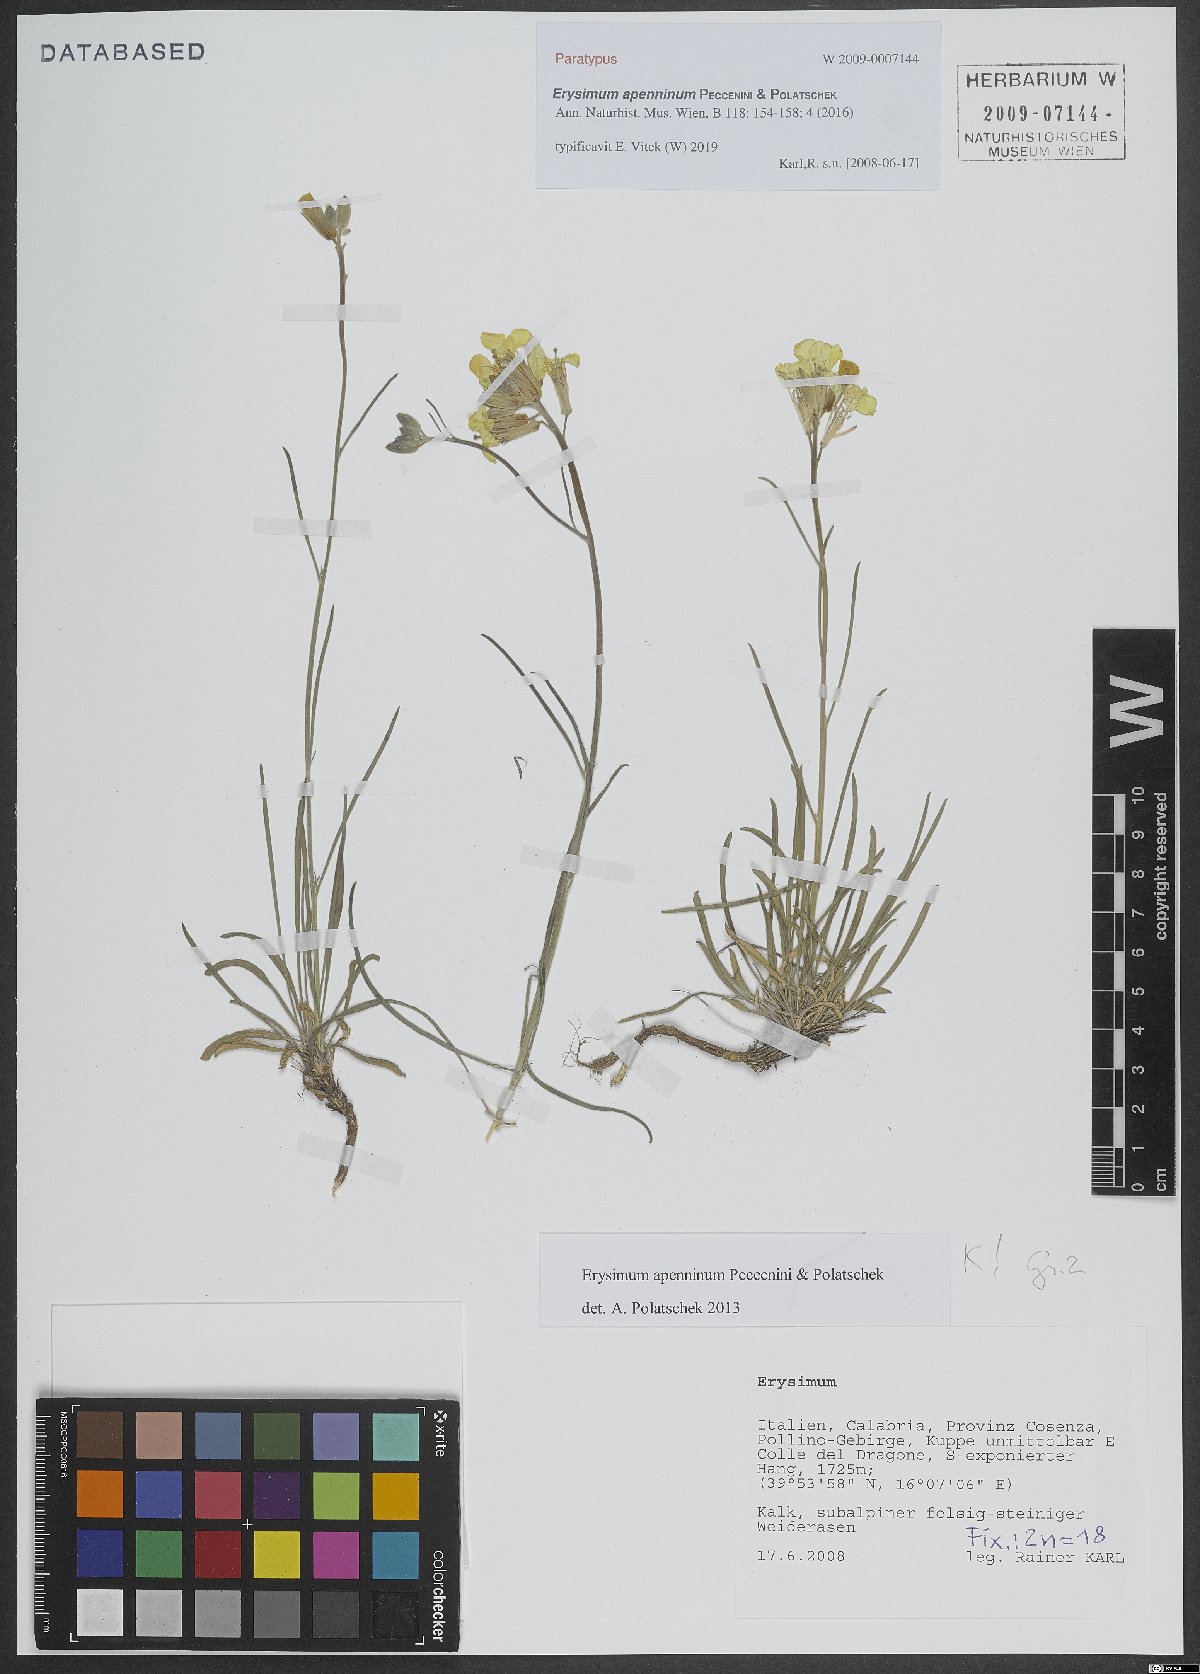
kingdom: Plantae
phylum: Tracheophyta
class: Magnoliopsida
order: Brassicales
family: Brassicaceae
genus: Erysimum
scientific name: Erysimum apenninum
